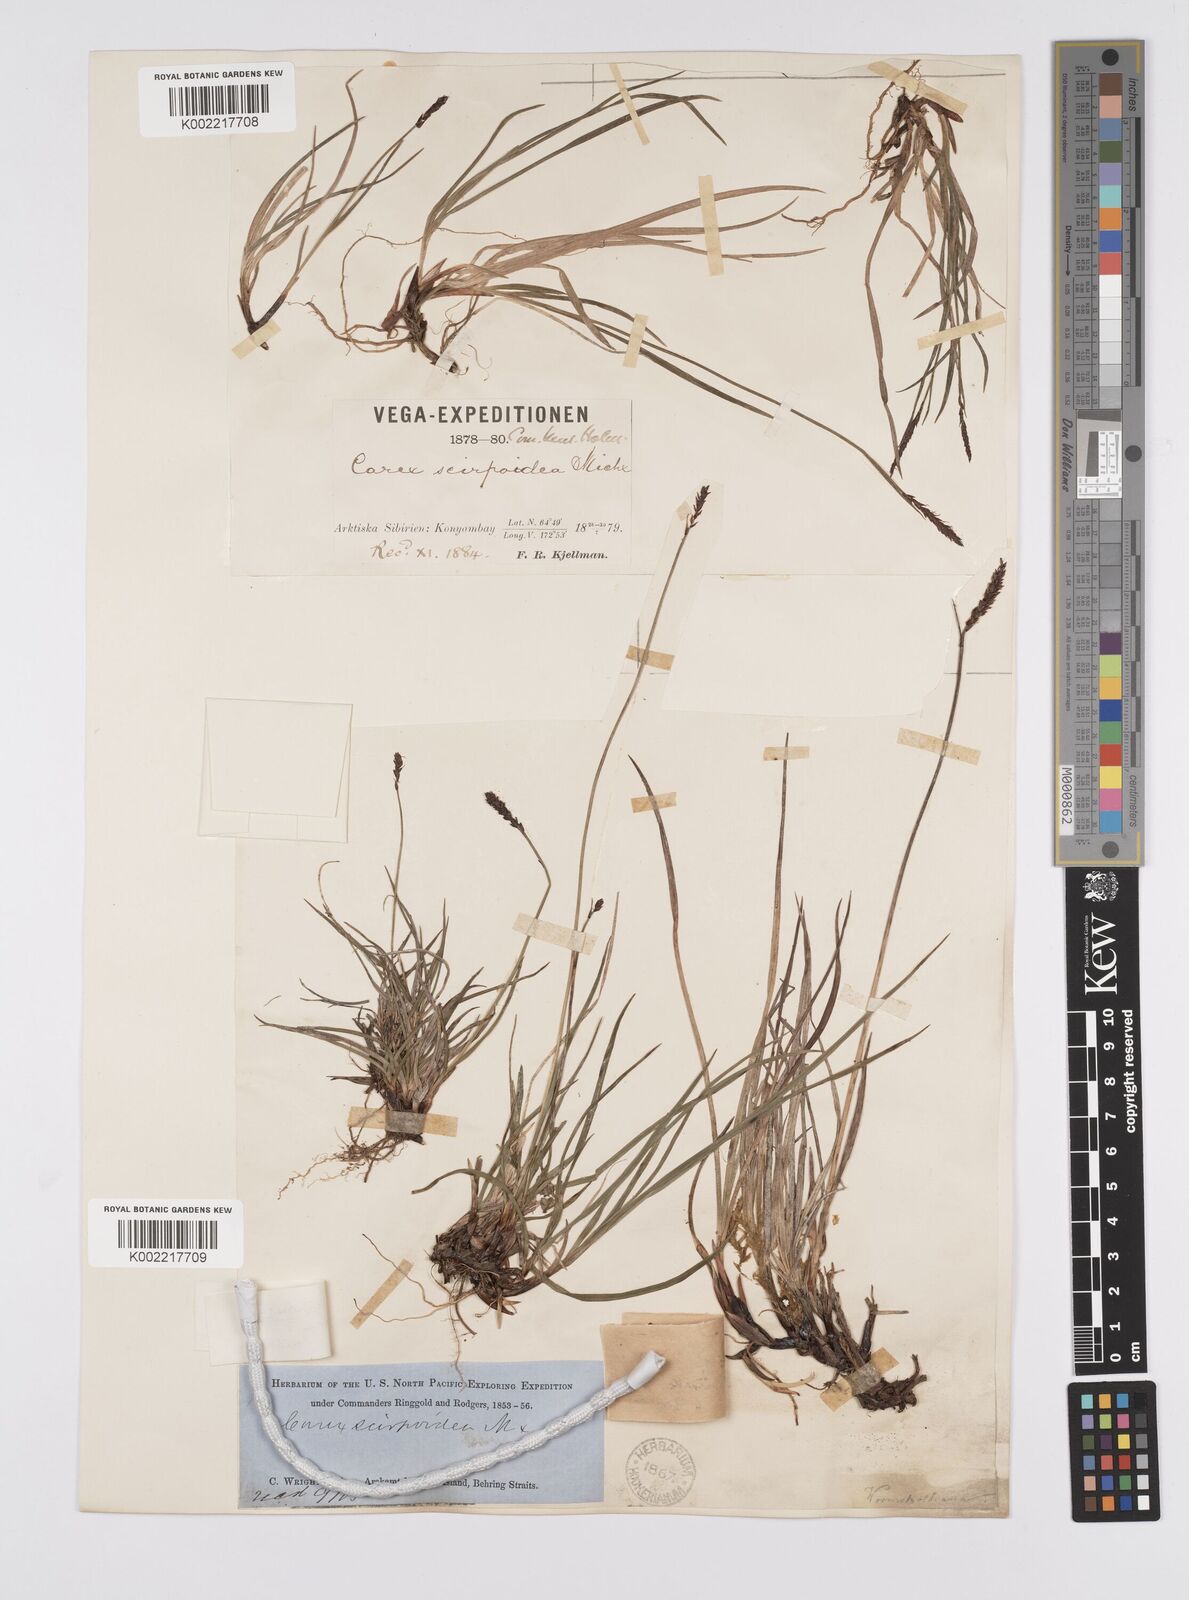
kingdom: Plantae
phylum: Tracheophyta
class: Liliopsida
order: Poales
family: Cyperaceae
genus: Carex
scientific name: Carex scirpoidea
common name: Canada single-spike sedge
